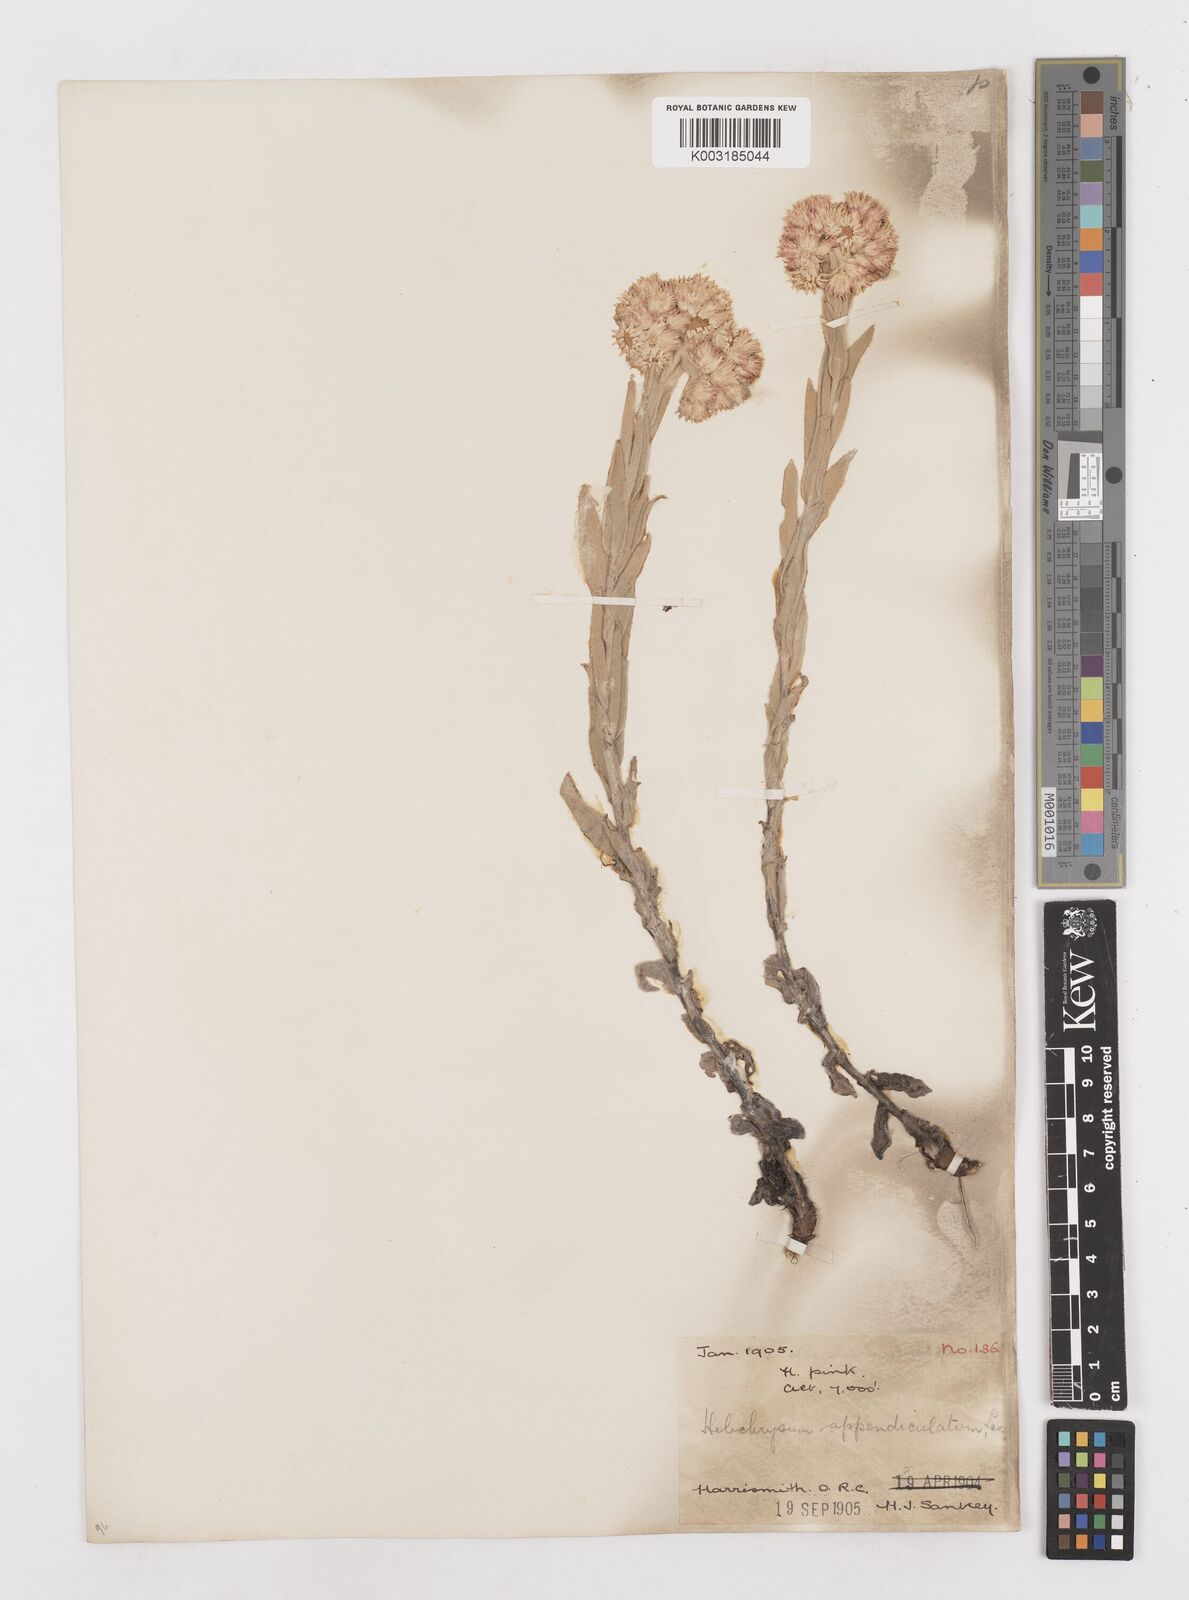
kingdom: Plantae
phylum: Tracheophyta
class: Magnoliopsida
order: Asterales
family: Asteraceae
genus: Helichrysum
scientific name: Helichrysum appendiculatum
